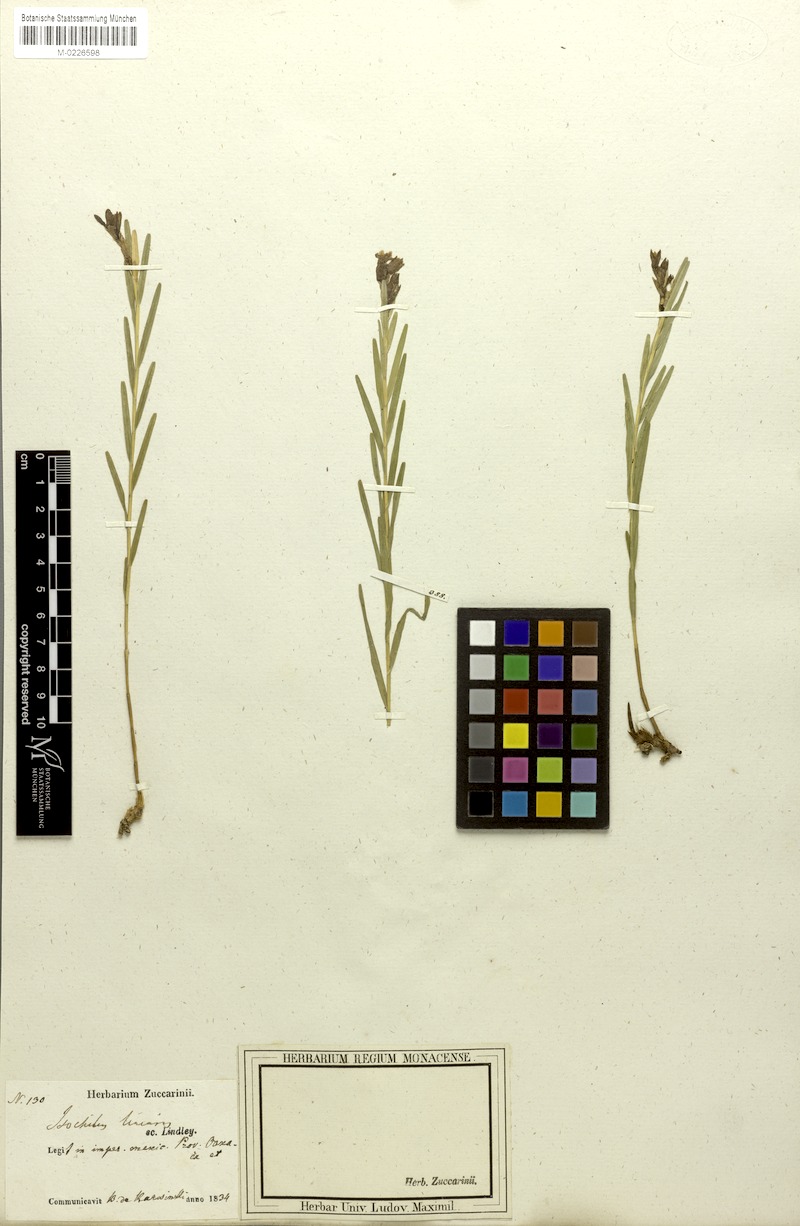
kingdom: Plantae
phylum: Tracheophyta
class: Liliopsida
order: Asparagales
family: Orchidaceae
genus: Isochilus
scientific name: Isochilus linearis
